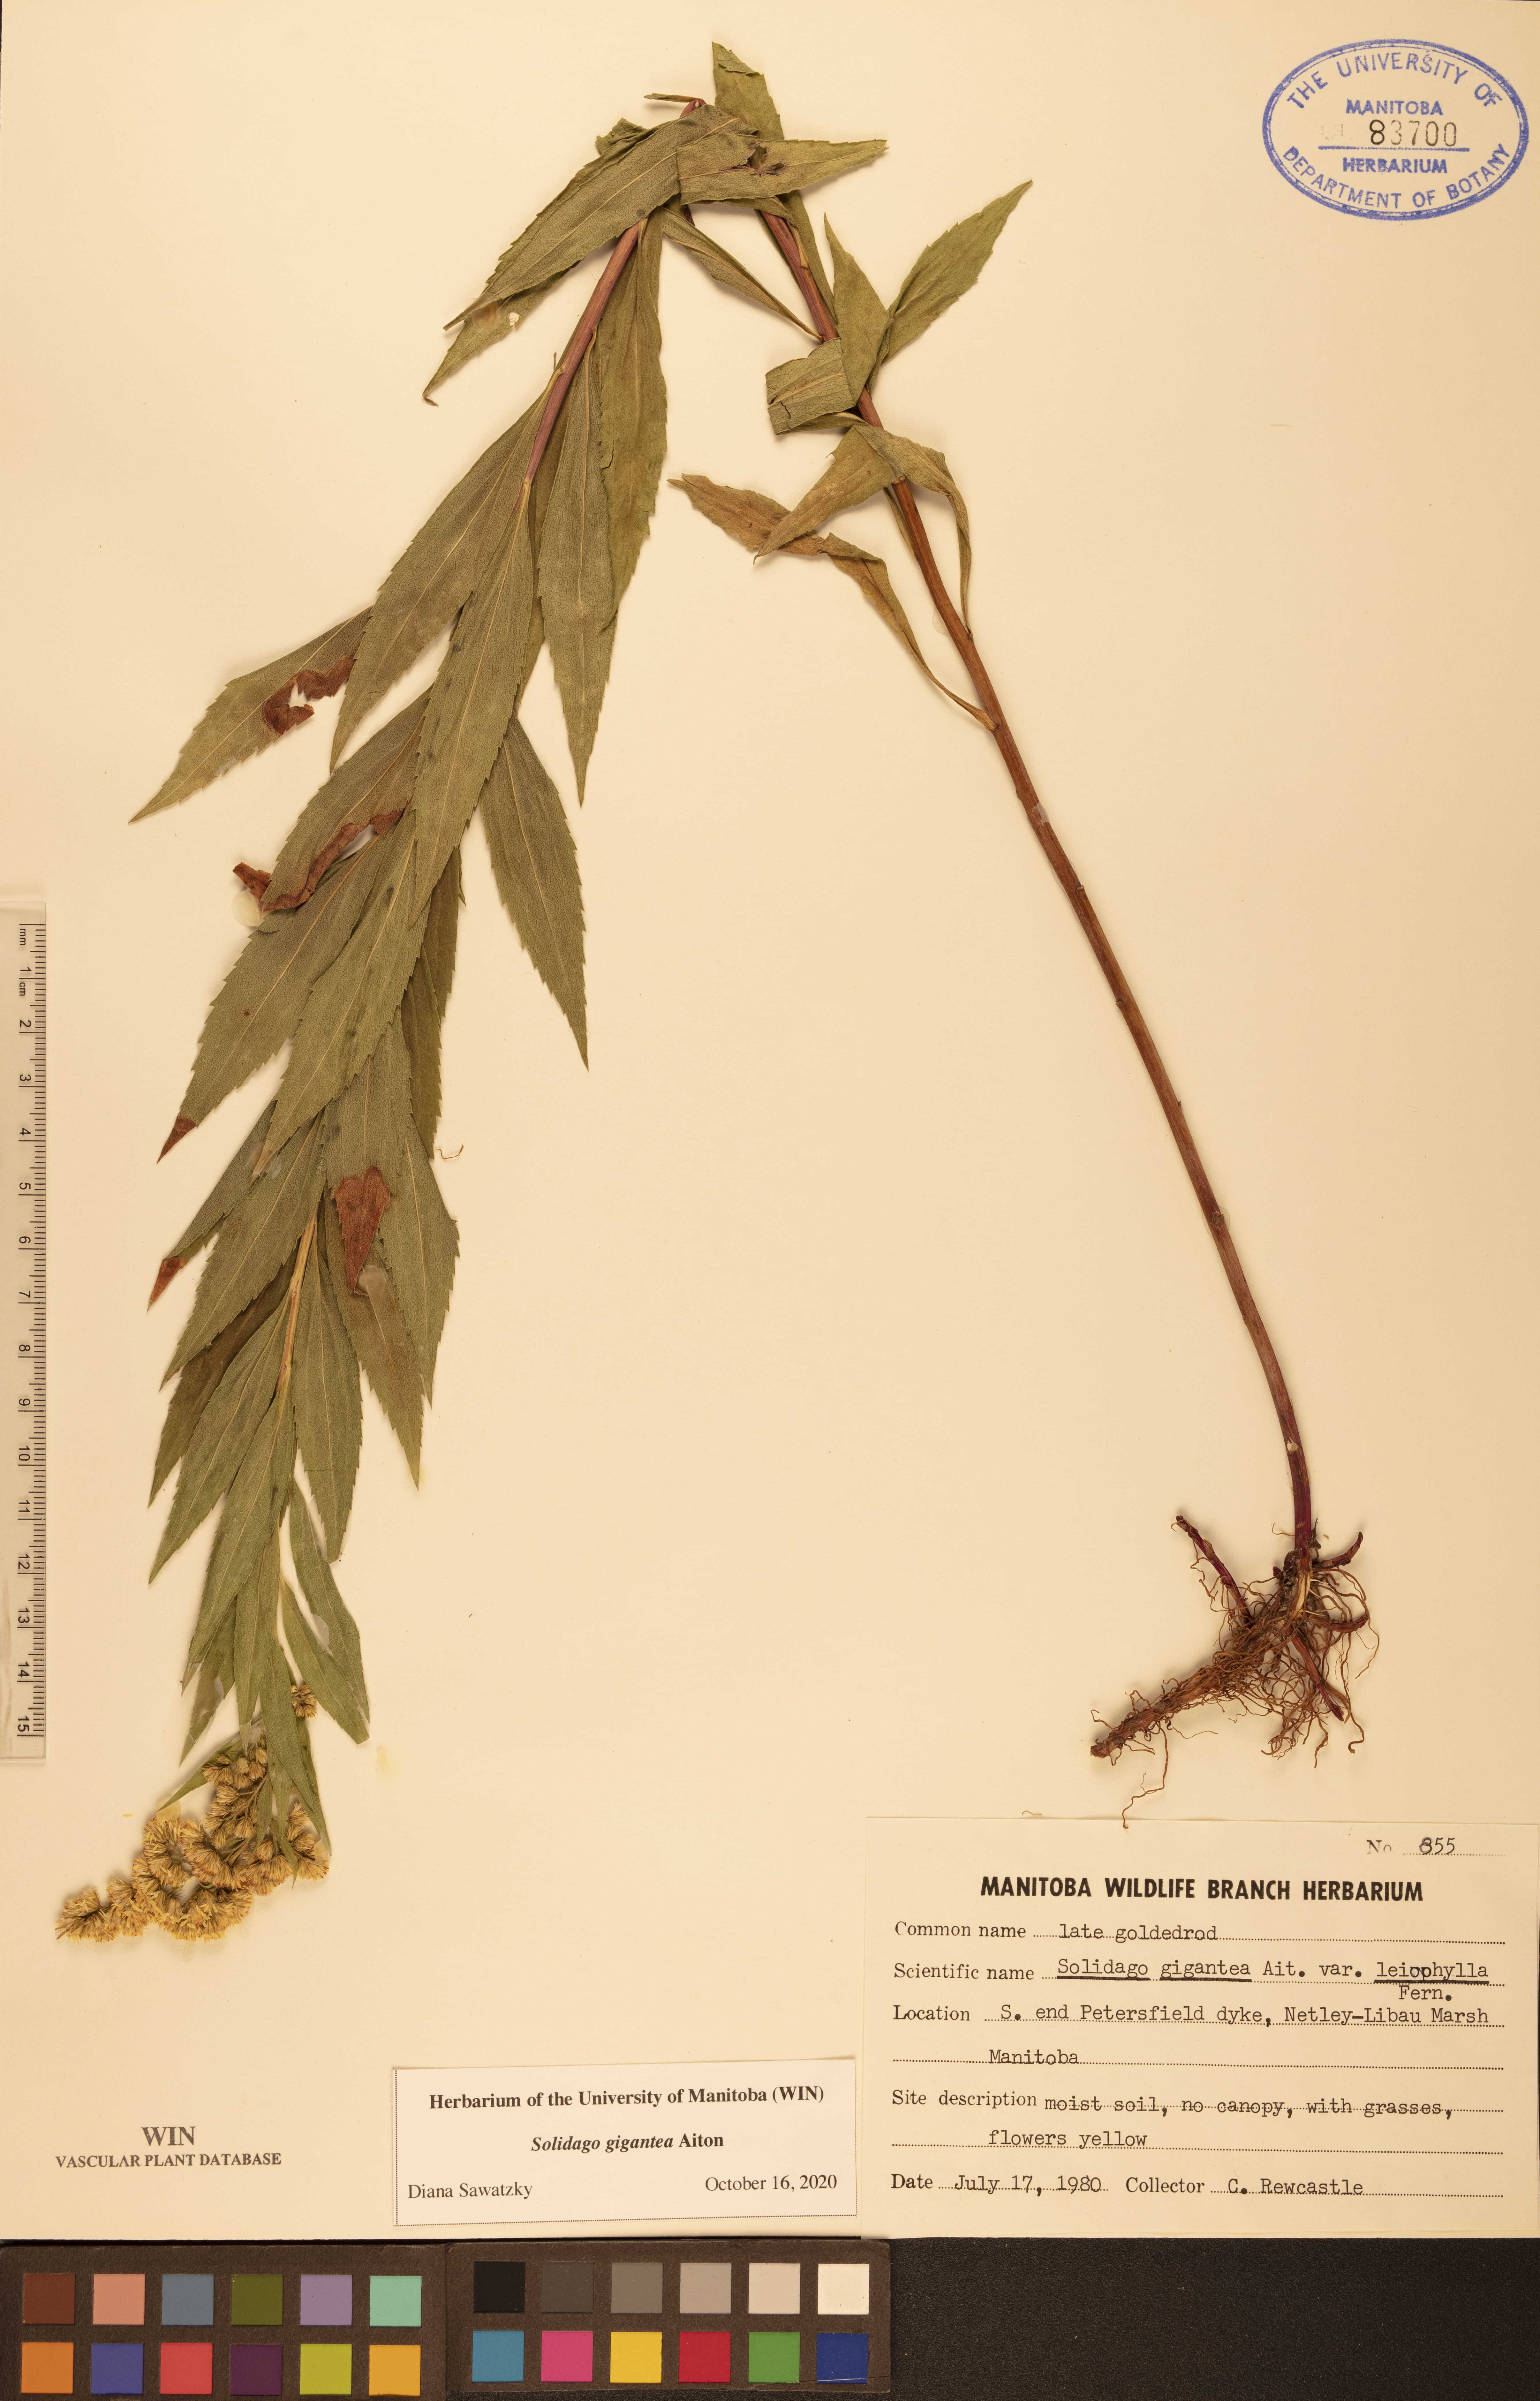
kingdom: Plantae
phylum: Tracheophyta
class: Magnoliopsida
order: Asterales
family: Asteraceae
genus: Solidago
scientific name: Solidago gigantea
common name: Giant goldenrod
